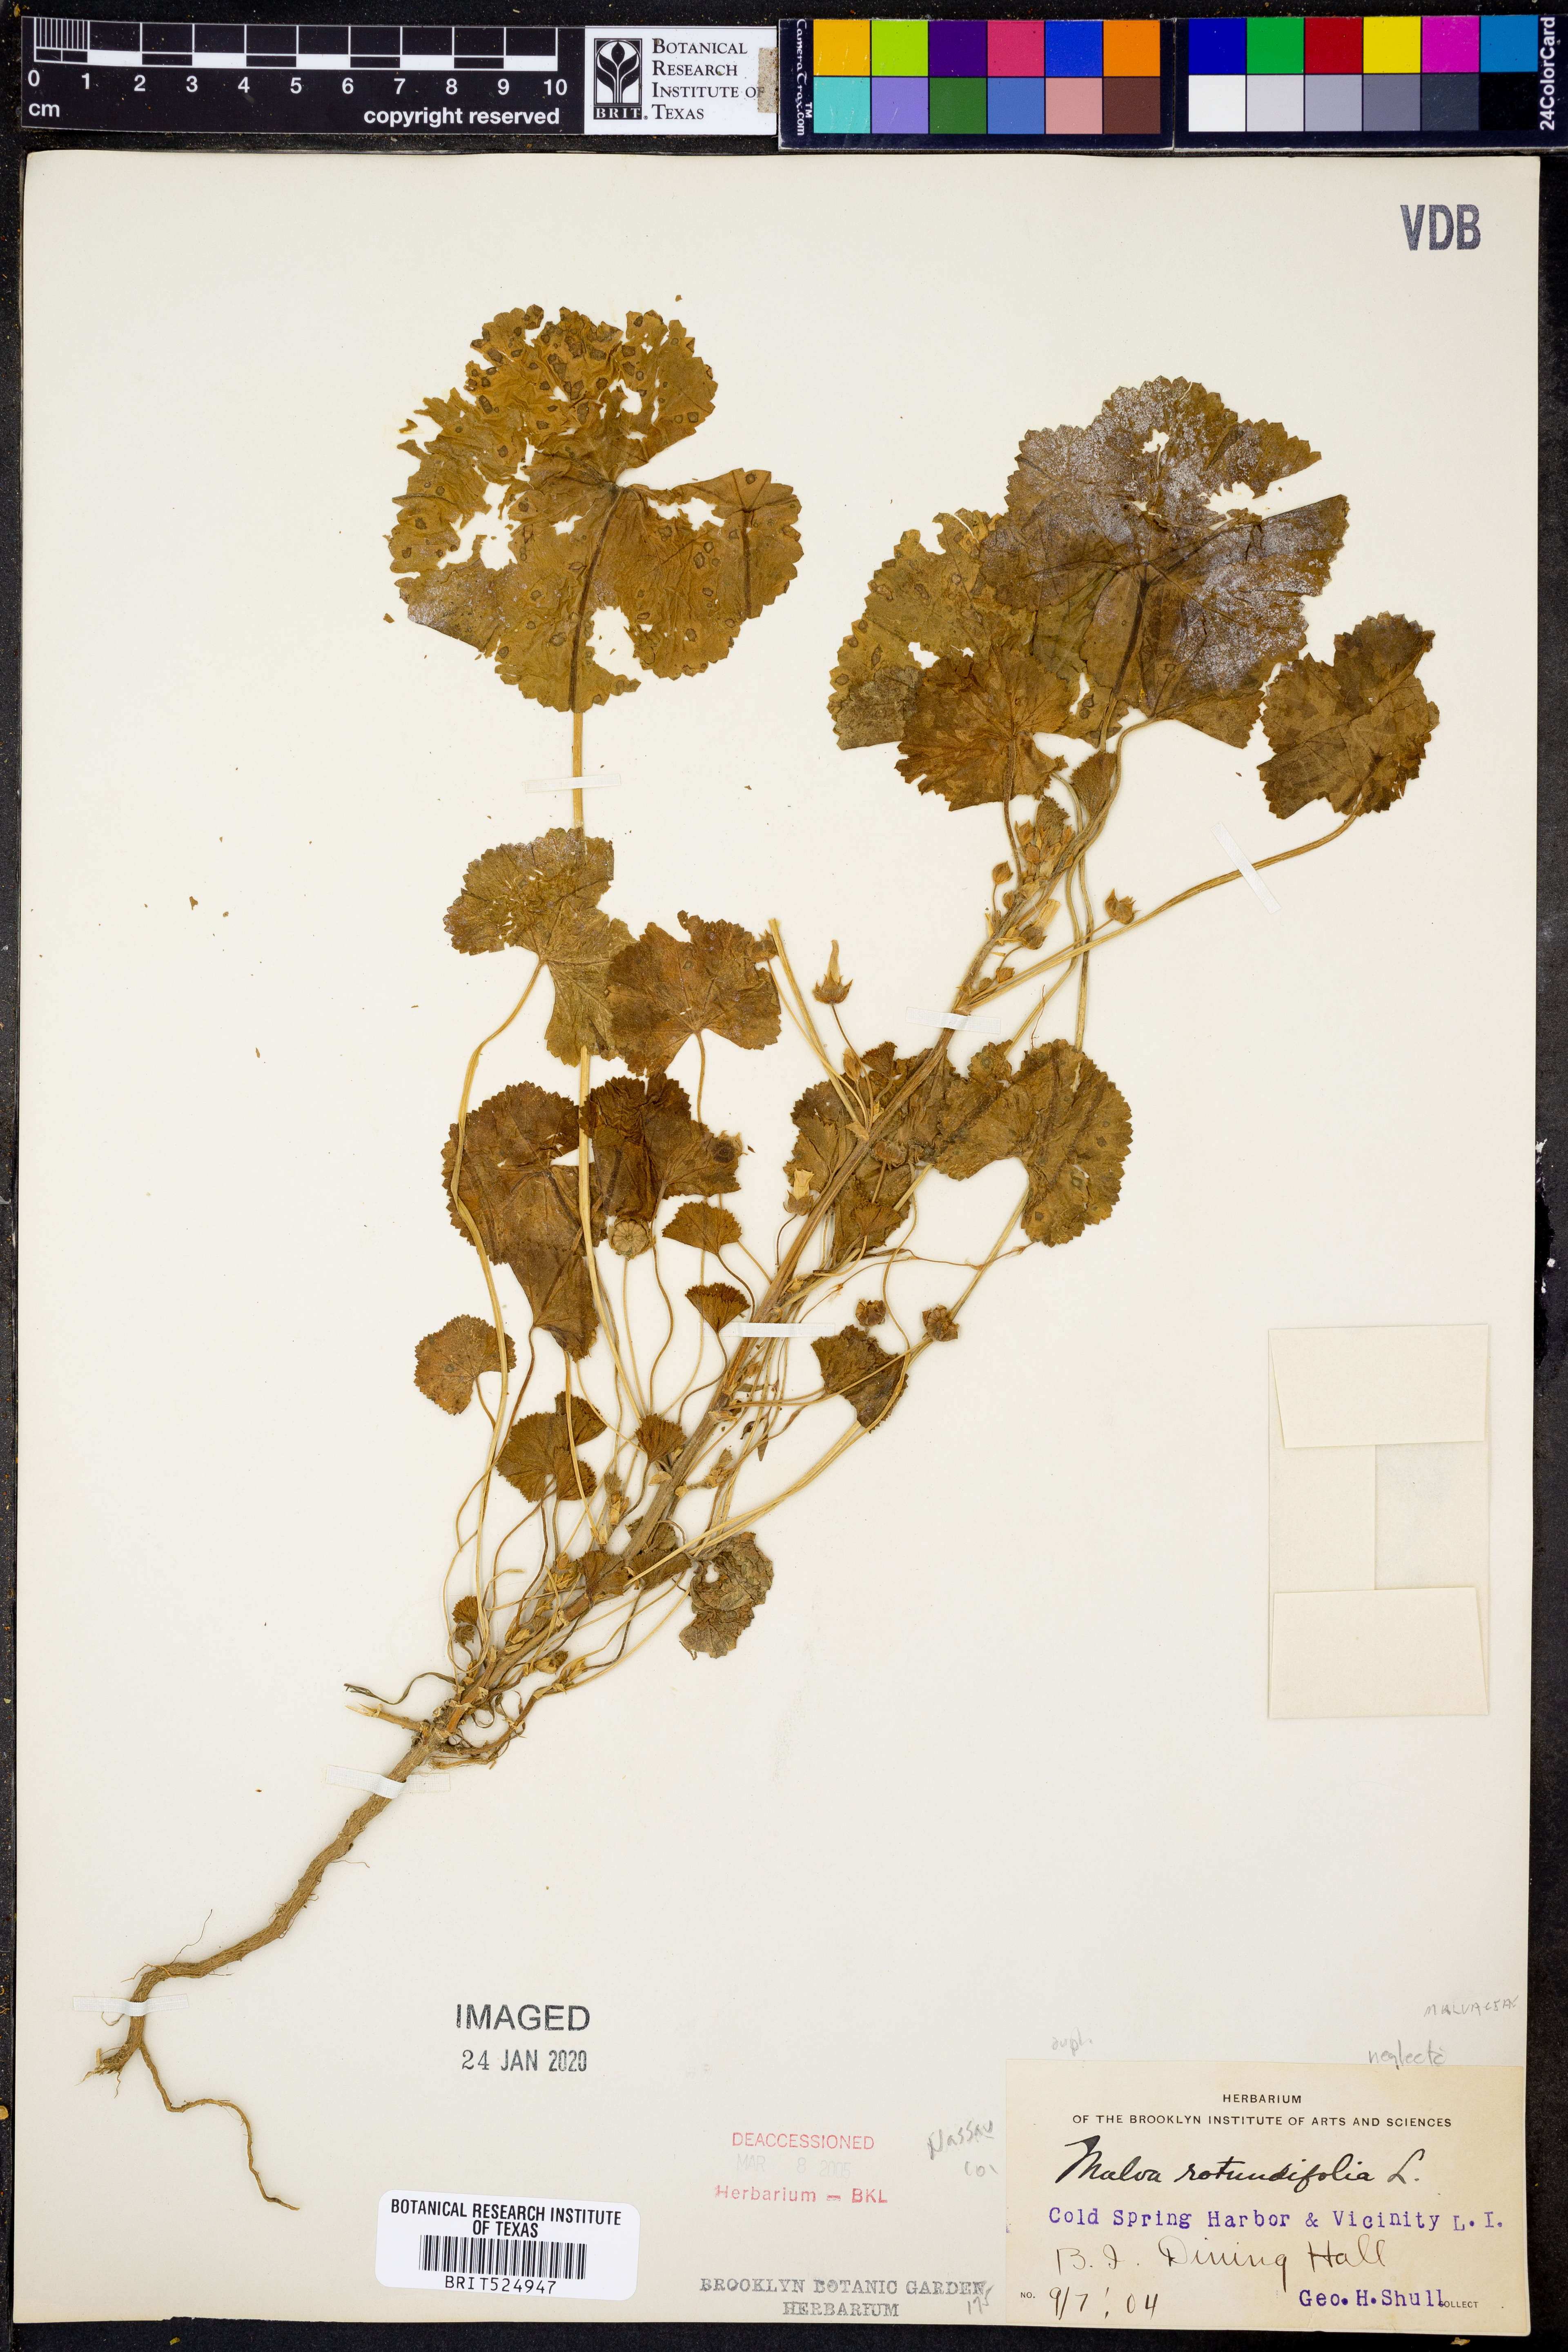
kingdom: Plantae
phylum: Tracheophyta
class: Magnoliopsida
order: Malvales
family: Malvaceae
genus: Malva
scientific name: Malva pusilla
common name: Small mallow
